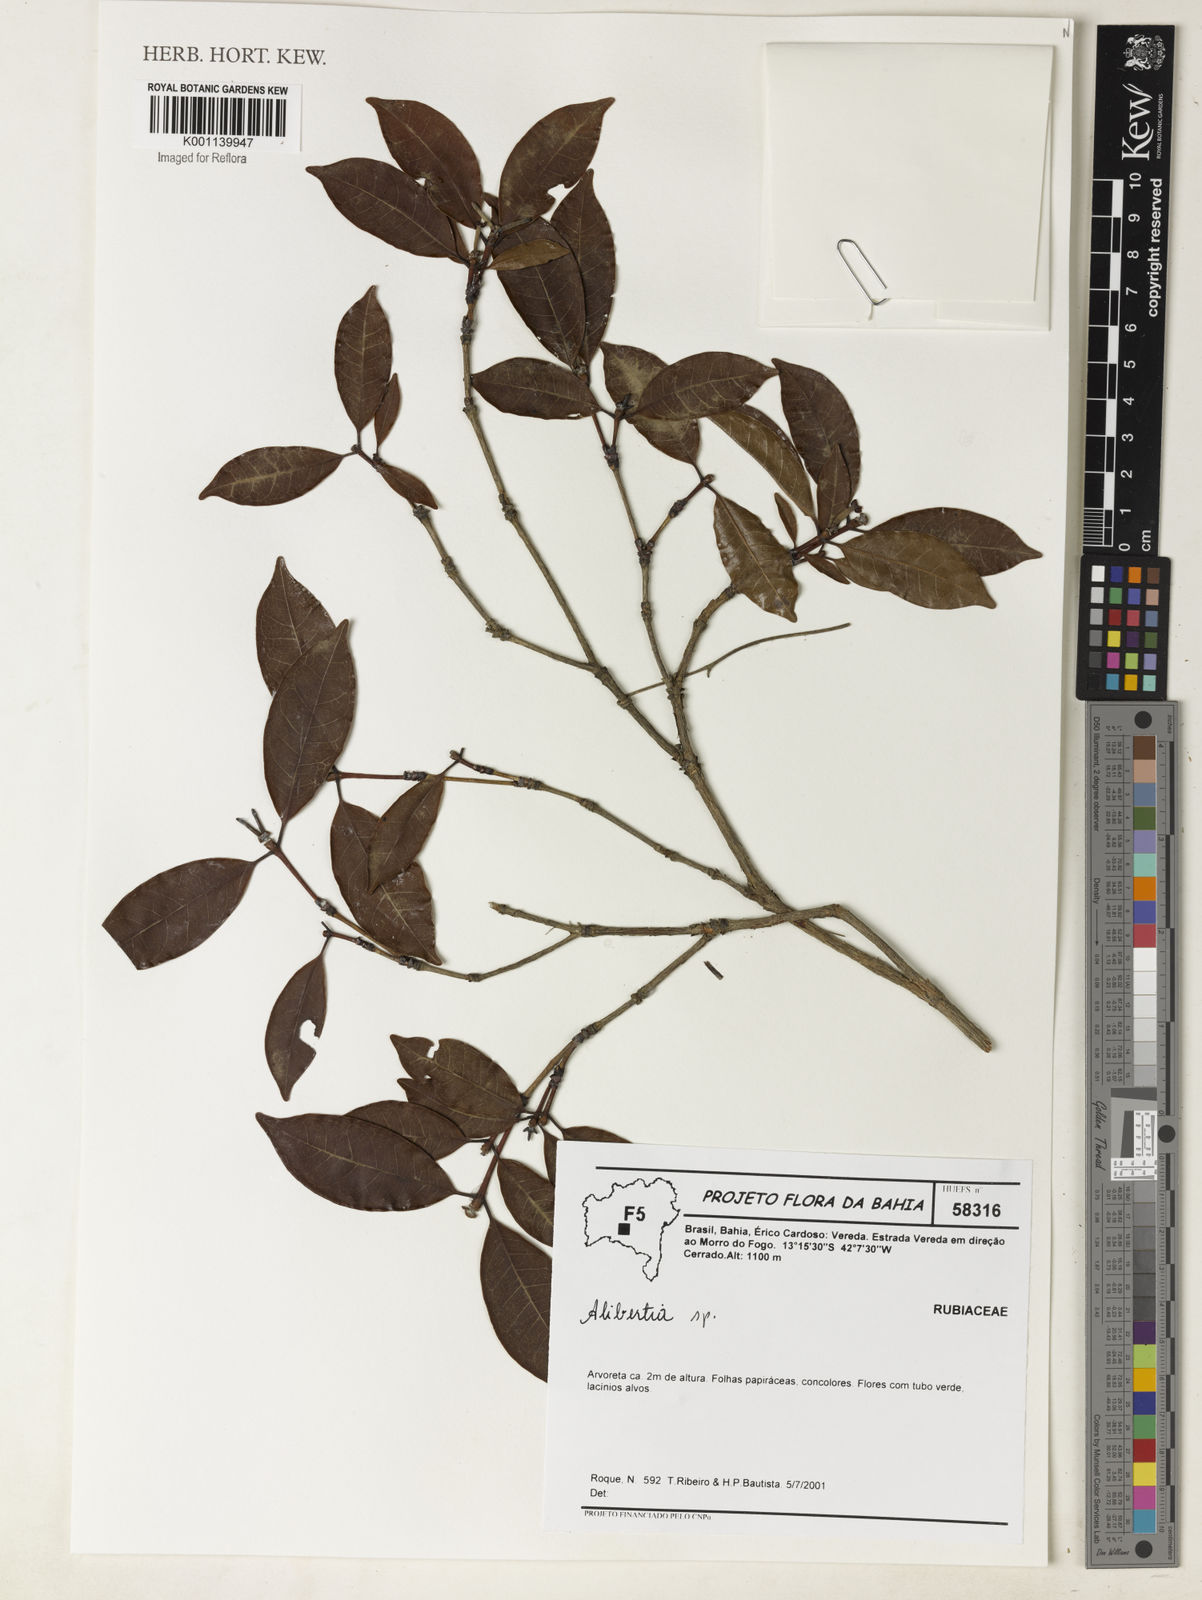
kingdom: Plantae
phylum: Tracheophyta
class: Magnoliopsida
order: Gentianales
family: Rubiaceae
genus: Alibertia
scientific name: Alibertia
